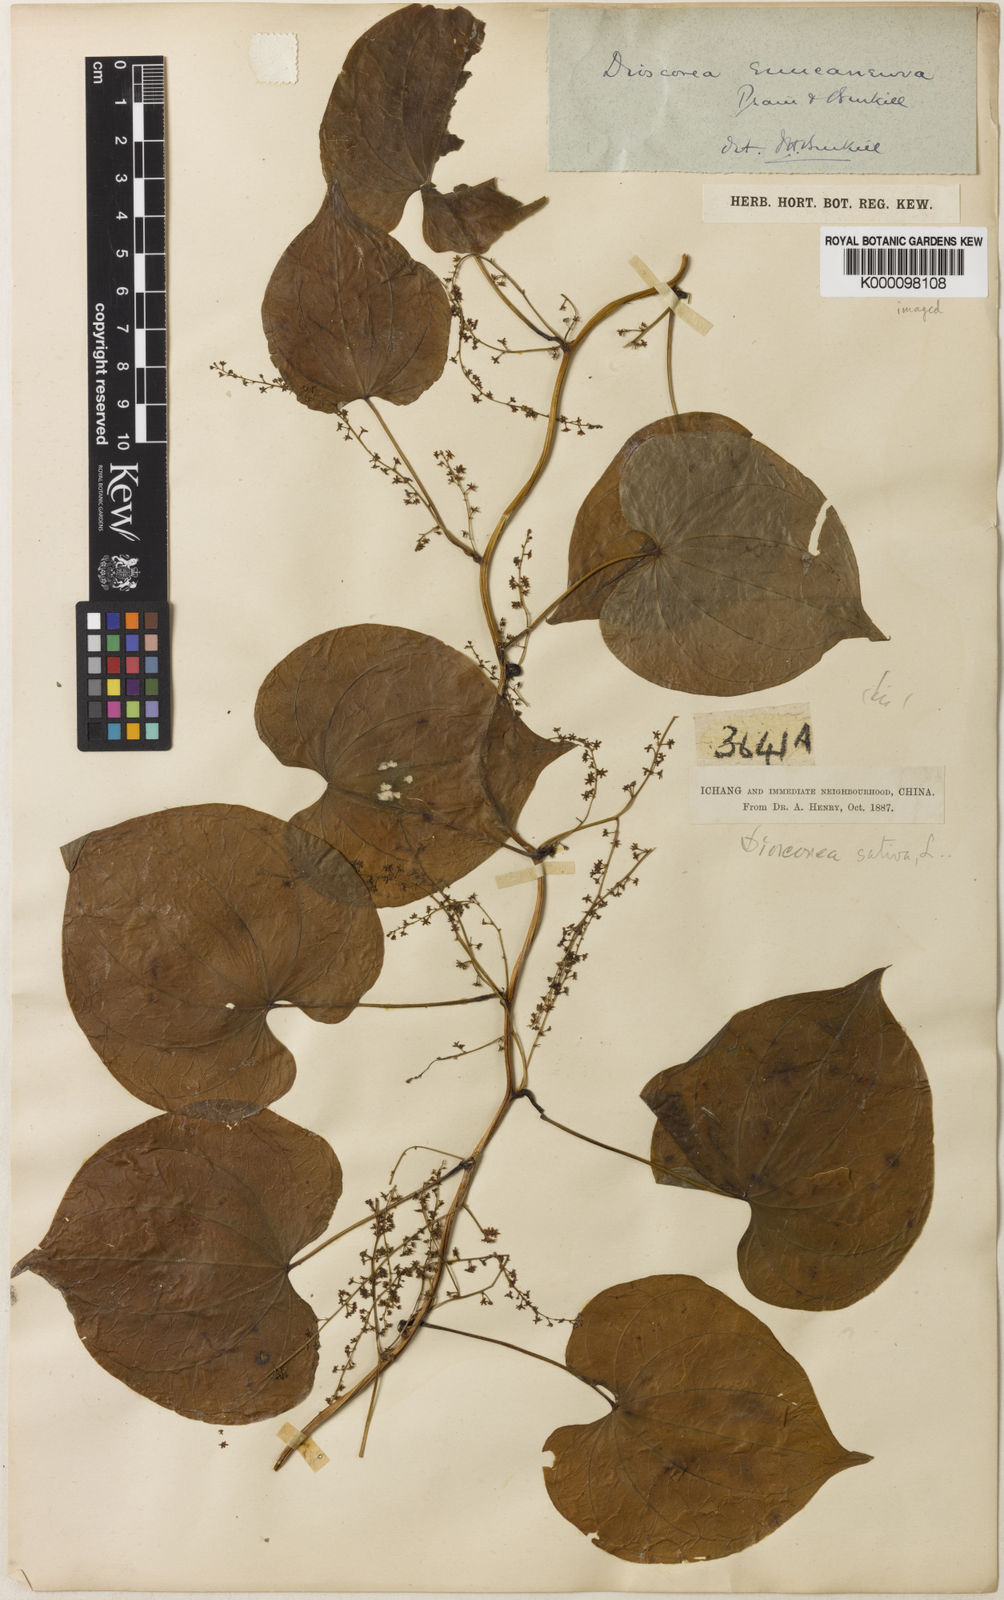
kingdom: Plantae
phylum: Tracheophyta
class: Liliopsida
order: Dioscoreales
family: Dioscoreaceae
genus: Dioscorea
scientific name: Dioscorea tokoro
